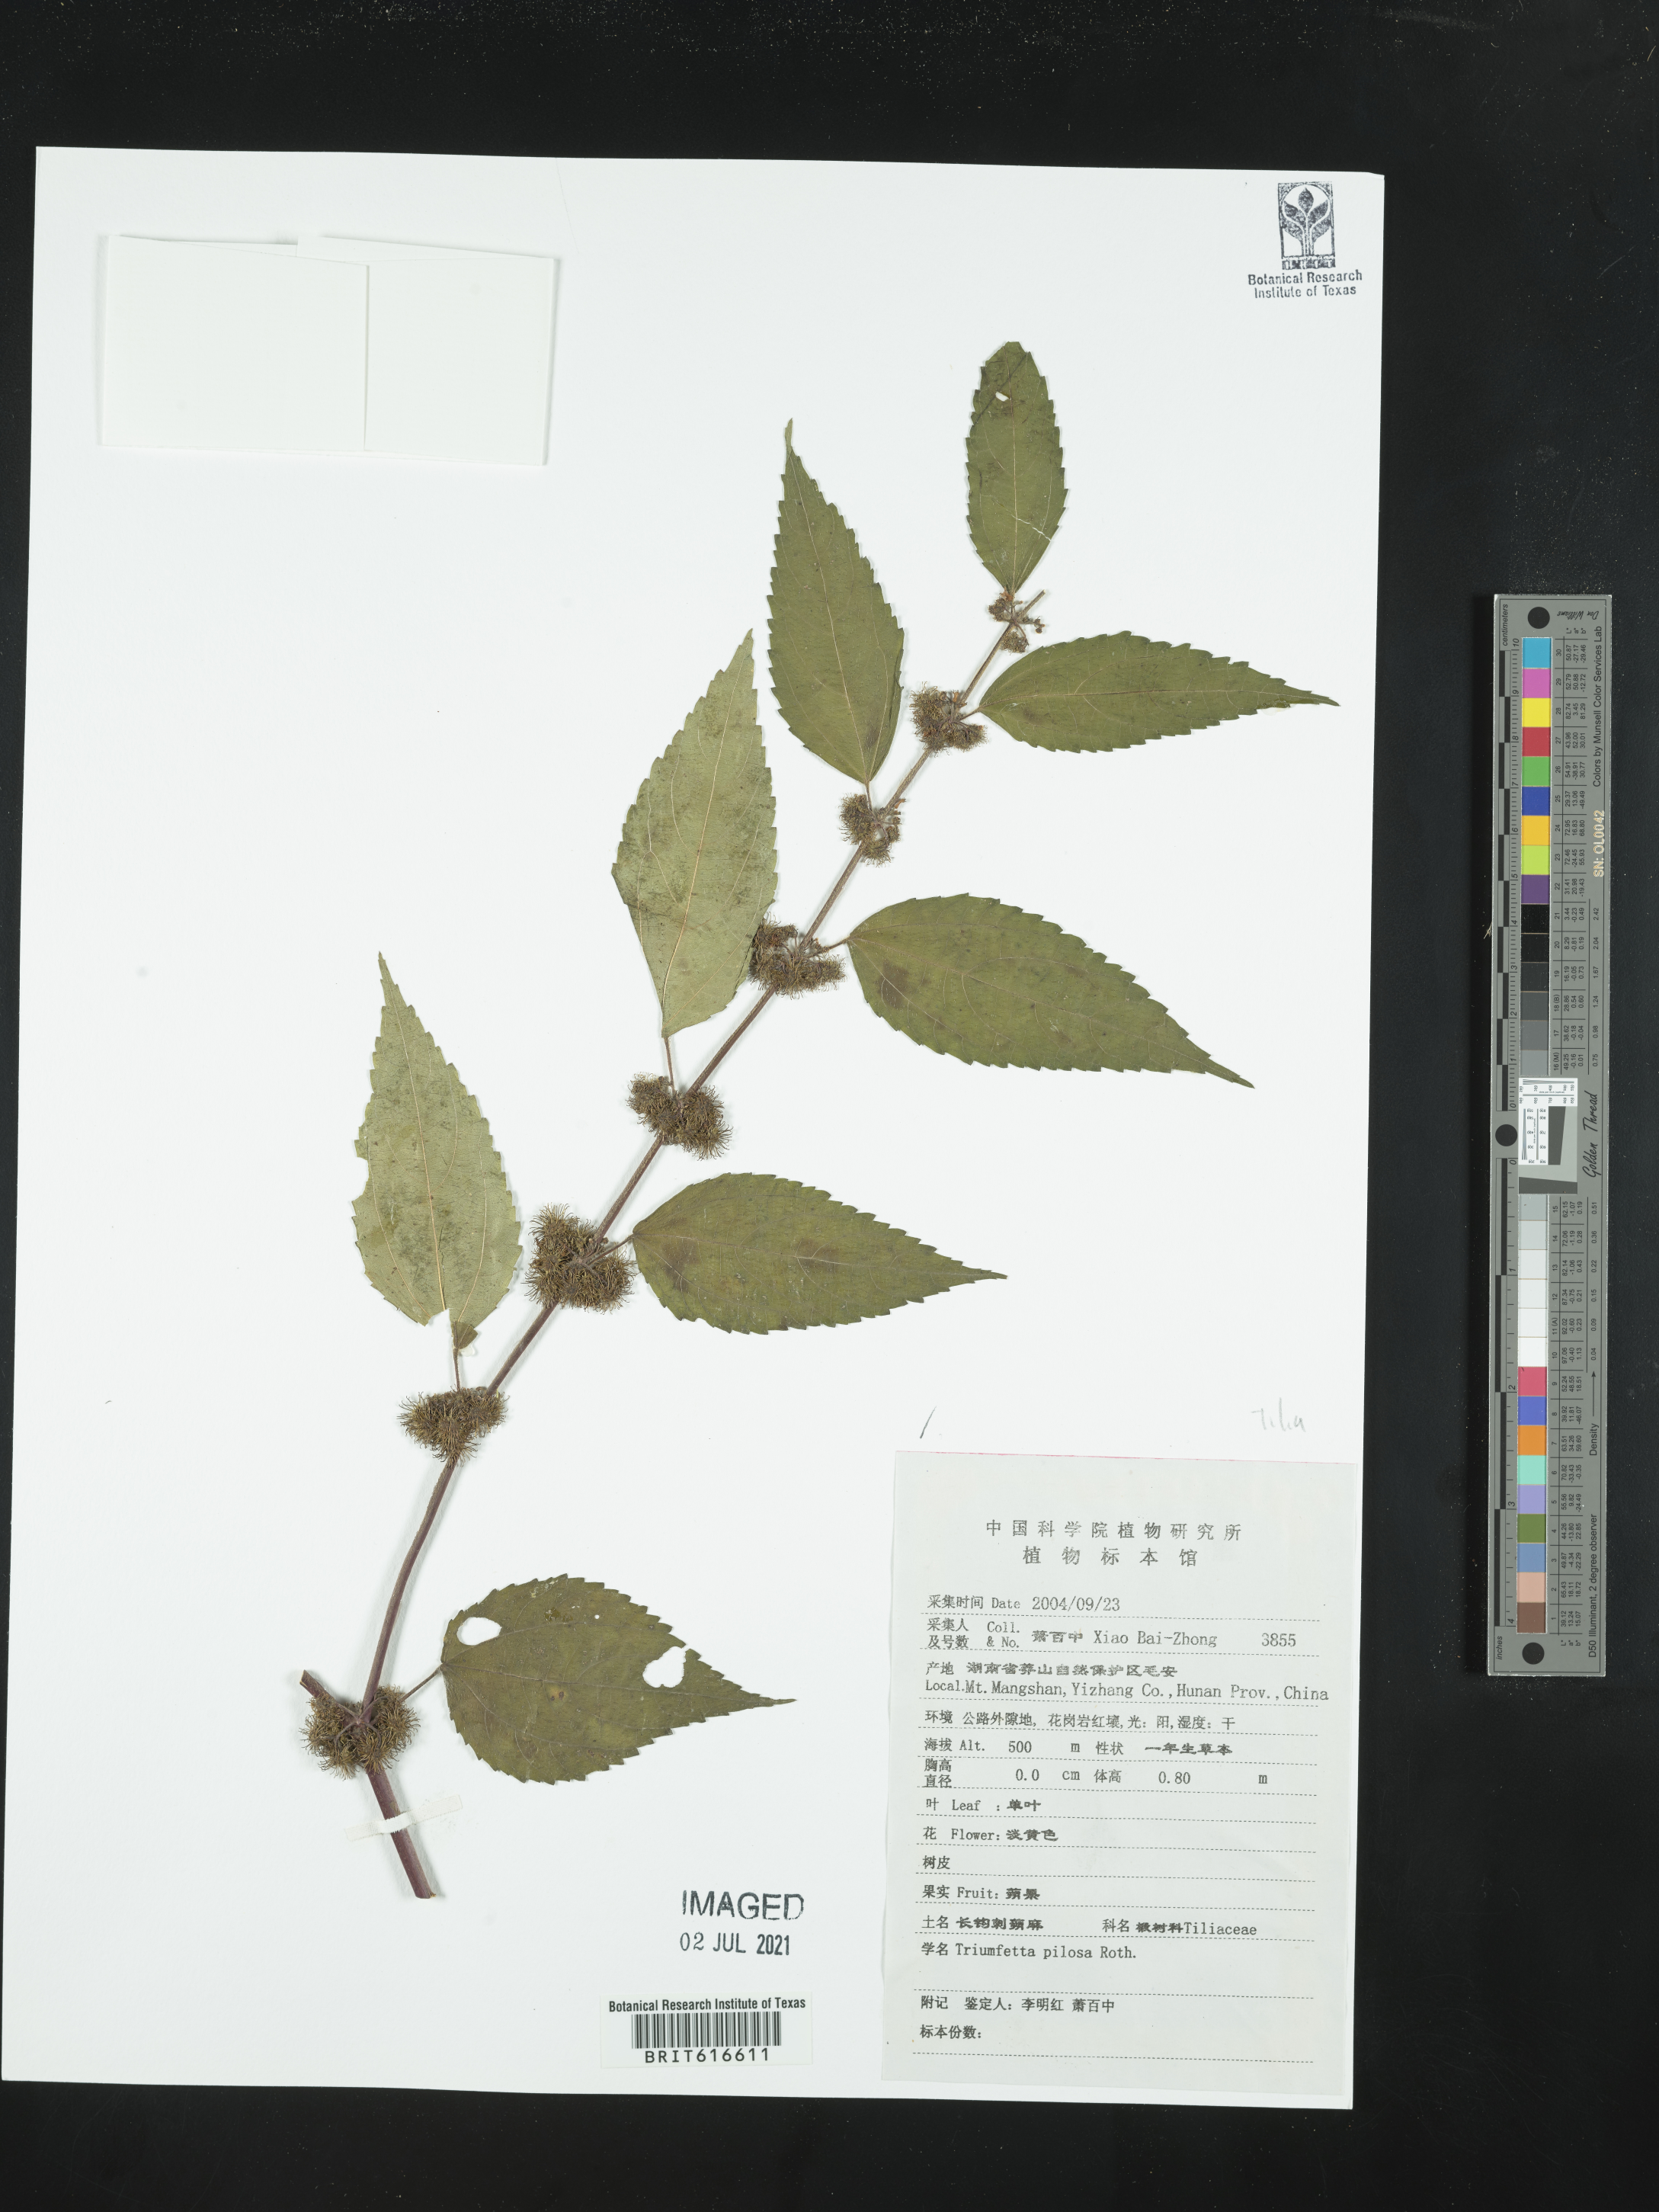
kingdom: Plantae
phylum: Tracheophyta
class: Magnoliopsida
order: Malvales
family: Malvaceae
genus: Triumfetta
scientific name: Triumfetta pilosa
